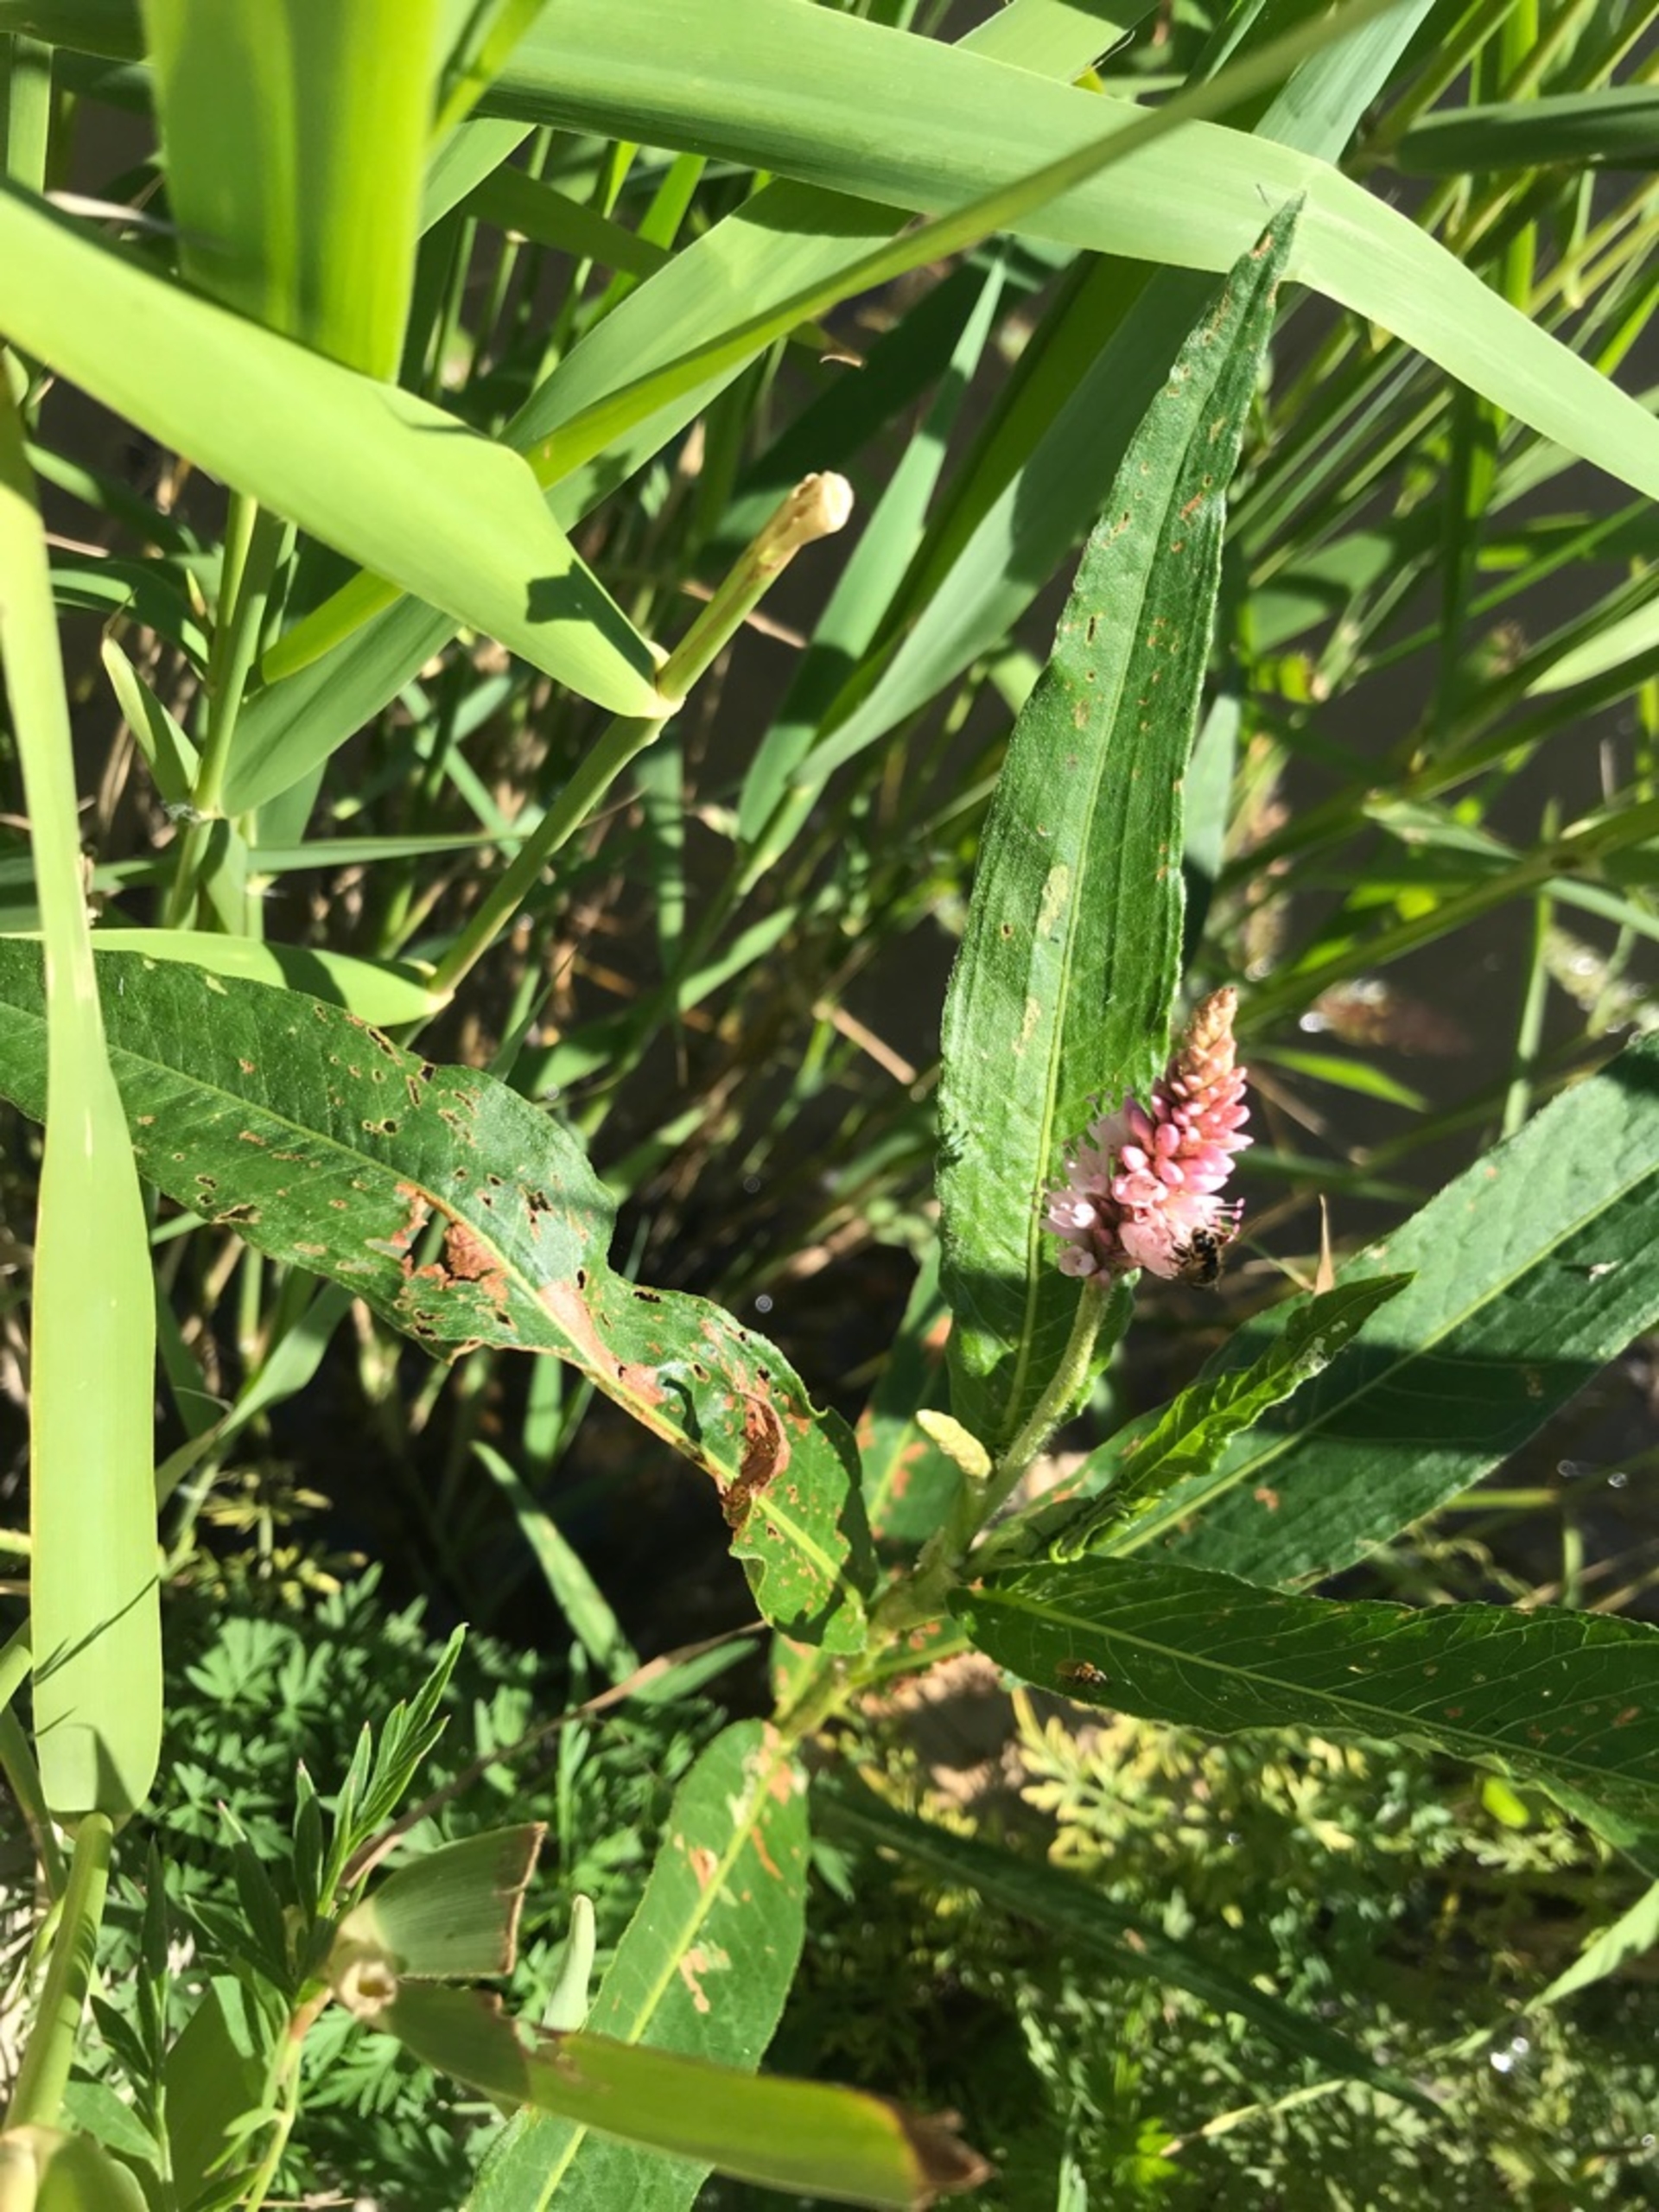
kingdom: Plantae
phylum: Tracheophyta
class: Magnoliopsida
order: Caryophyllales
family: Polygonaceae
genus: Persicaria
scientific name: Persicaria amphibia
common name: Vand-pileurt
